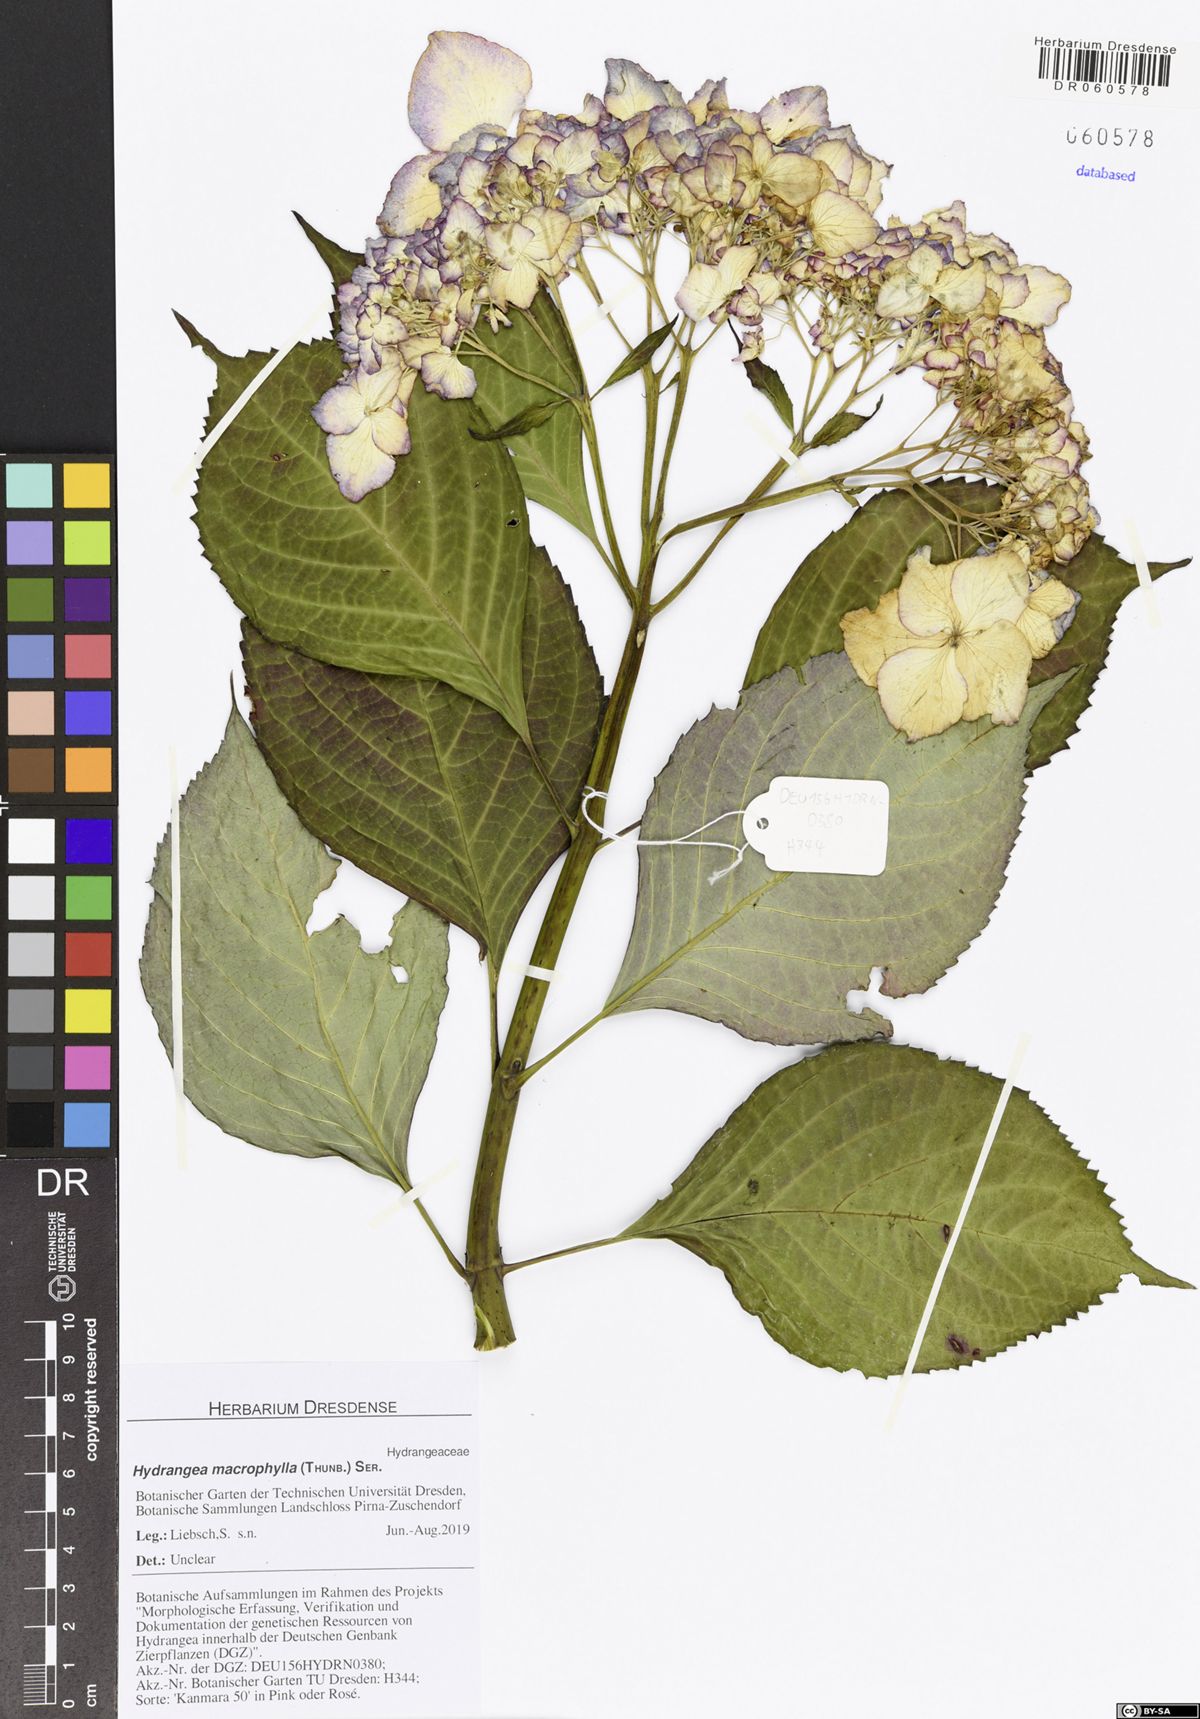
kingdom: Plantae
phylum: Tracheophyta
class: Magnoliopsida
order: Cornales
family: Hydrangeaceae
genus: Hydrangea
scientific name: Hydrangea macrophylla
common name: Hydrangea
